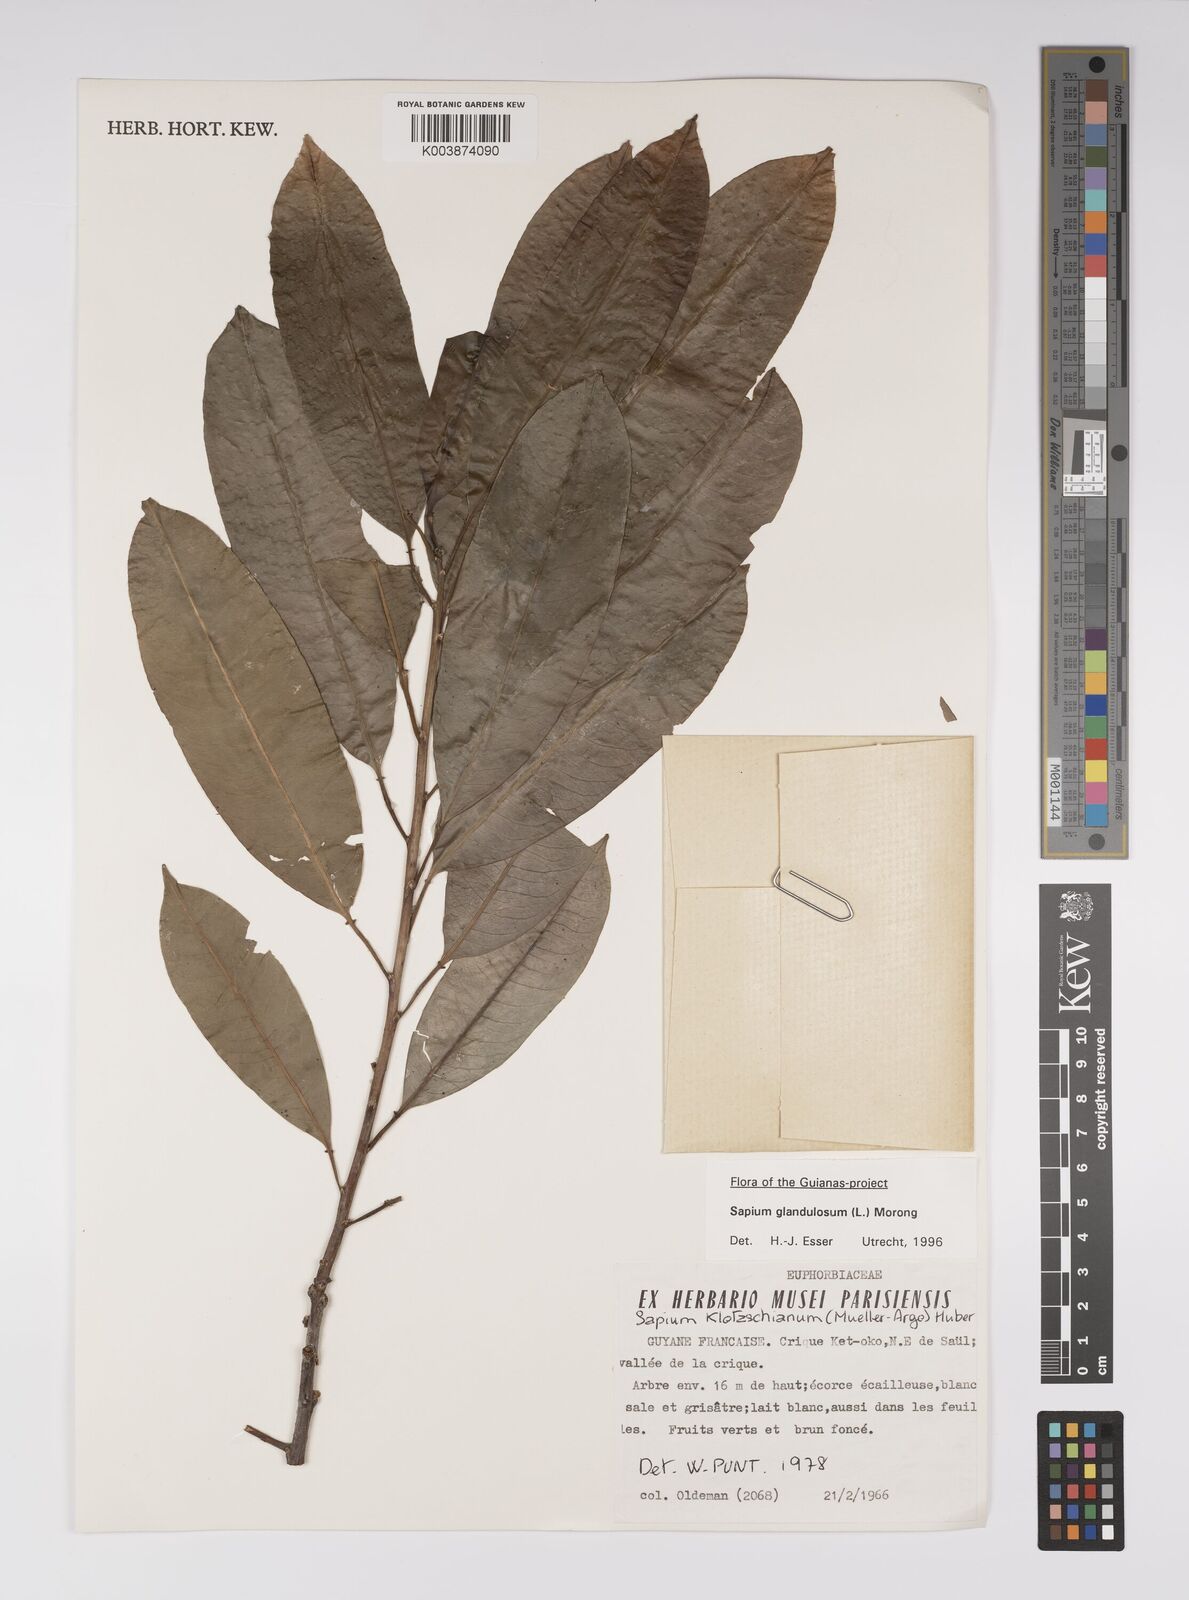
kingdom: Plantae
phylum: Tracheophyta
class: Magnoliopsida
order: Malpighiales
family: Euphorbiaceae
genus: Sapium
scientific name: Sapium glandulosum
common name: Milktree
